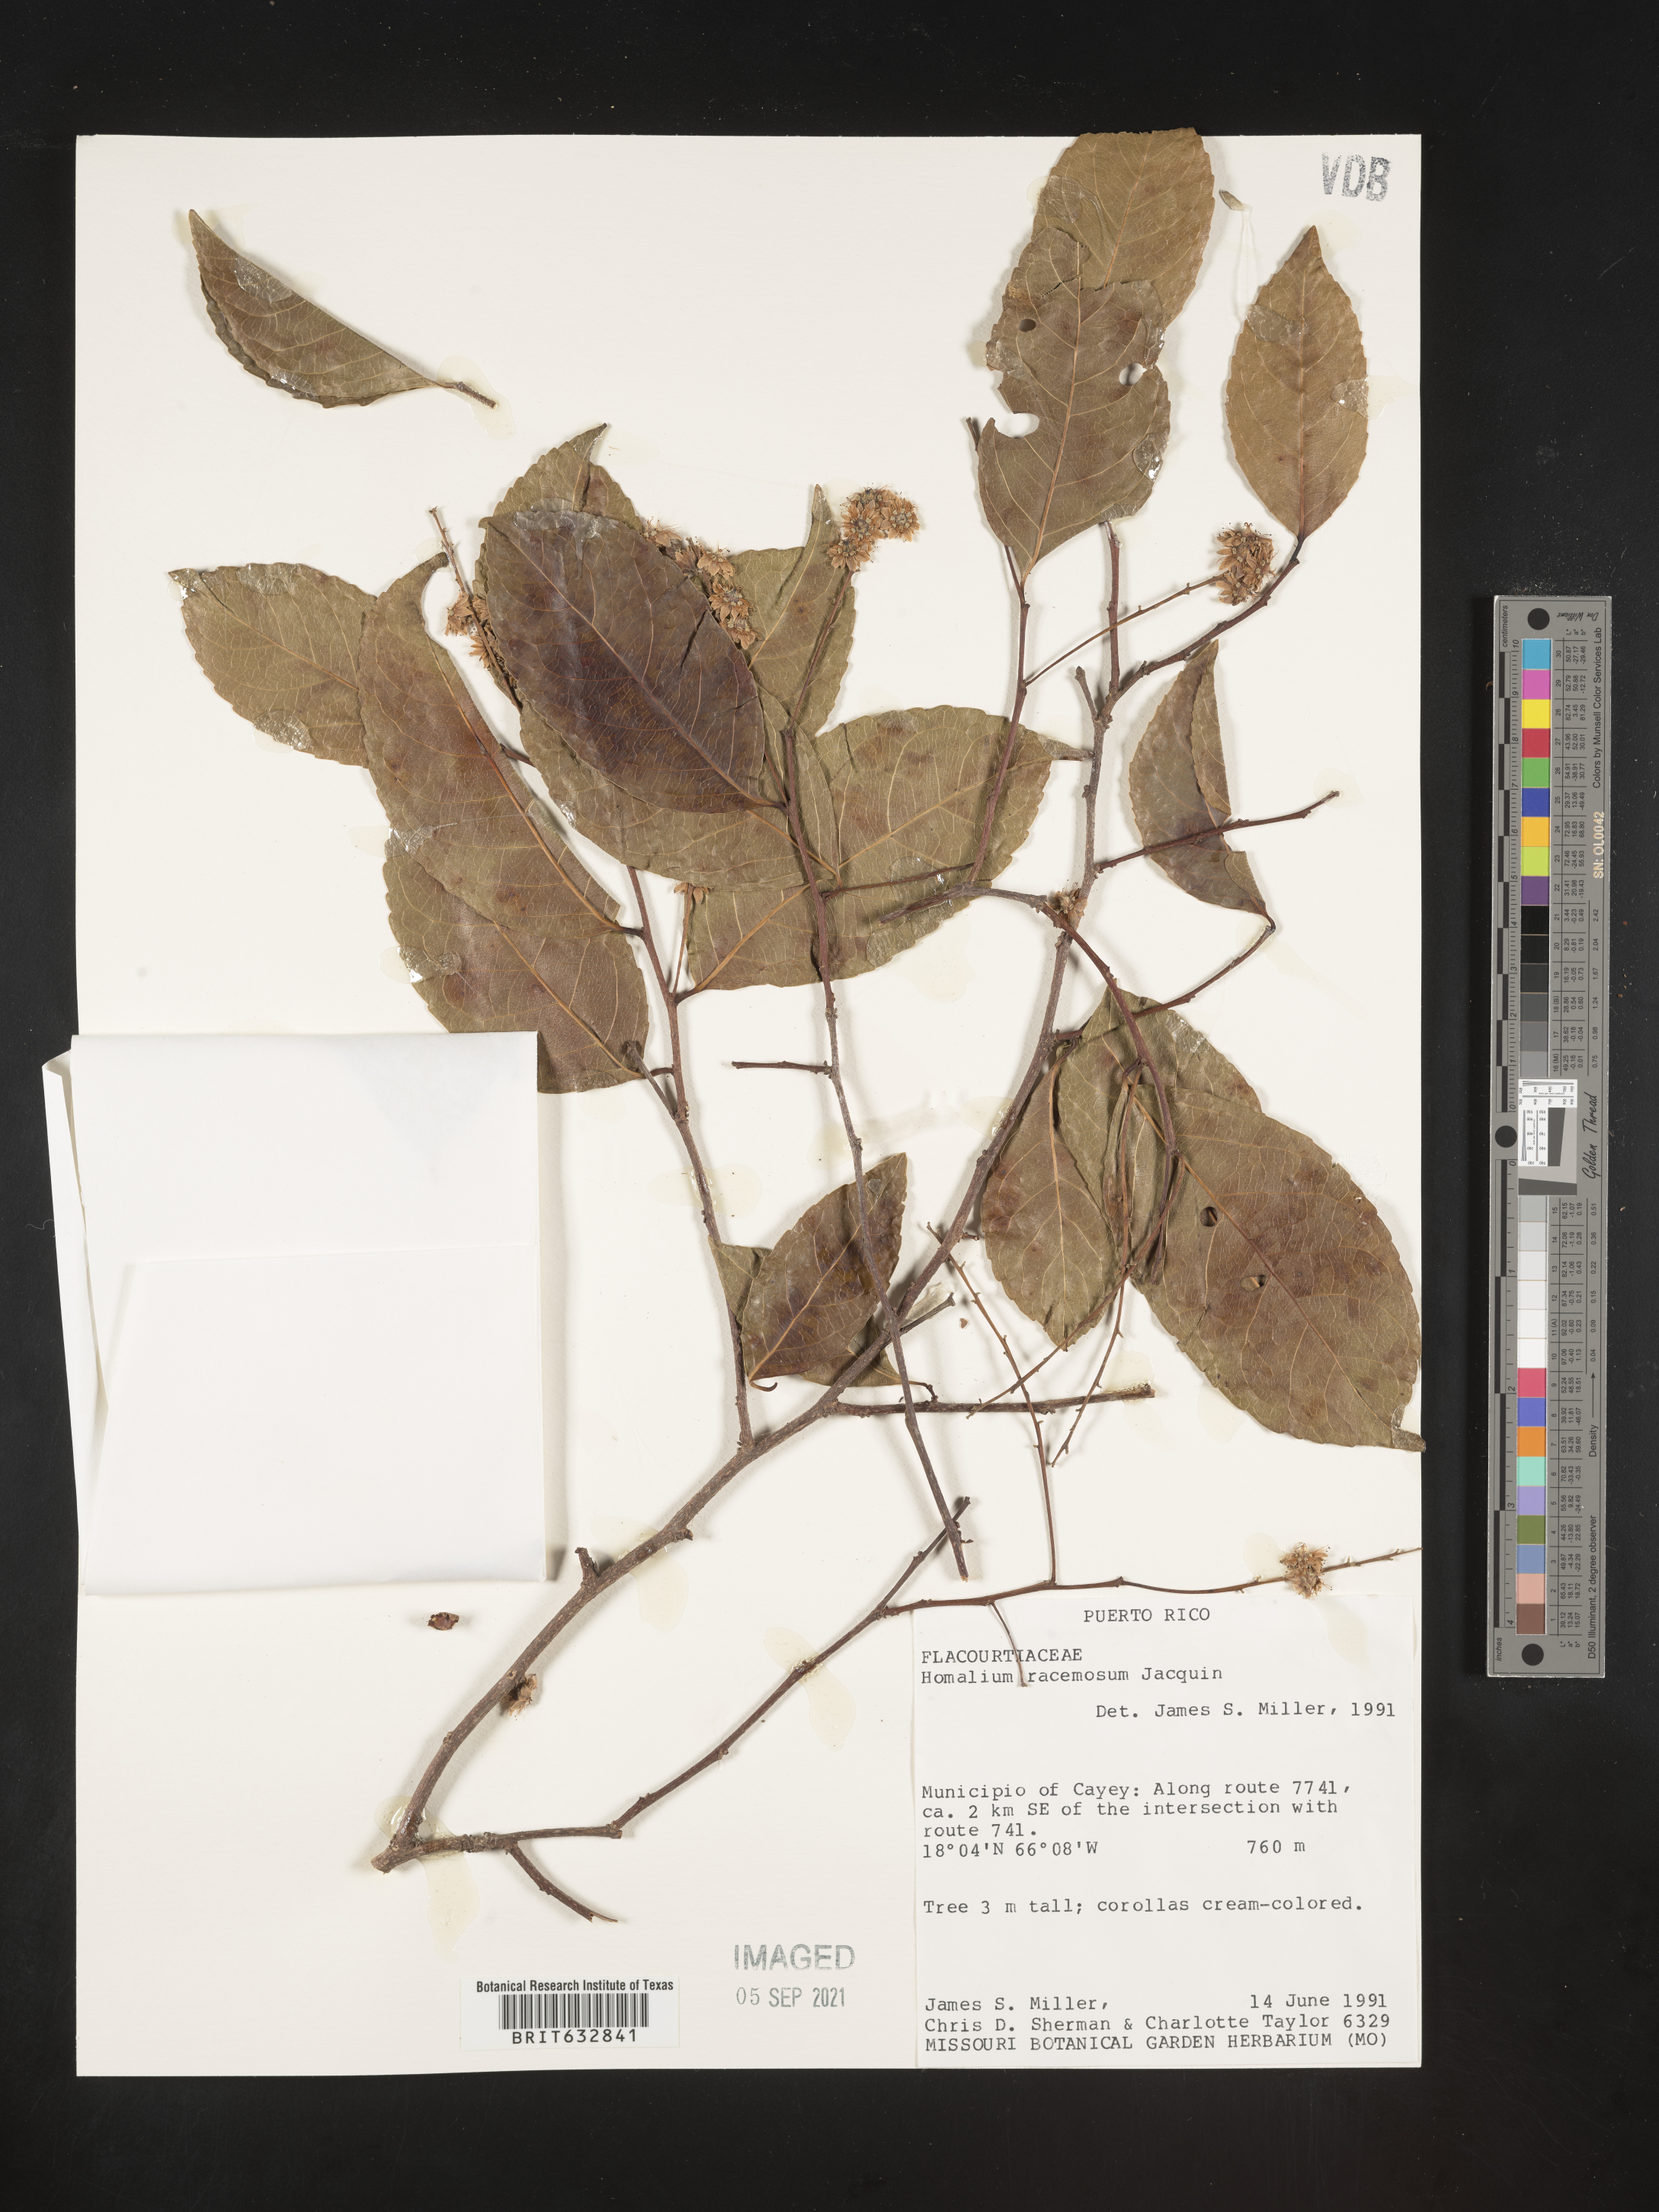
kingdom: Plantae
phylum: Tracheophyta
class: Magnoliopsida
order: Malpighiales
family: Salicaceae
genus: Homalium
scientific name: Homalium
